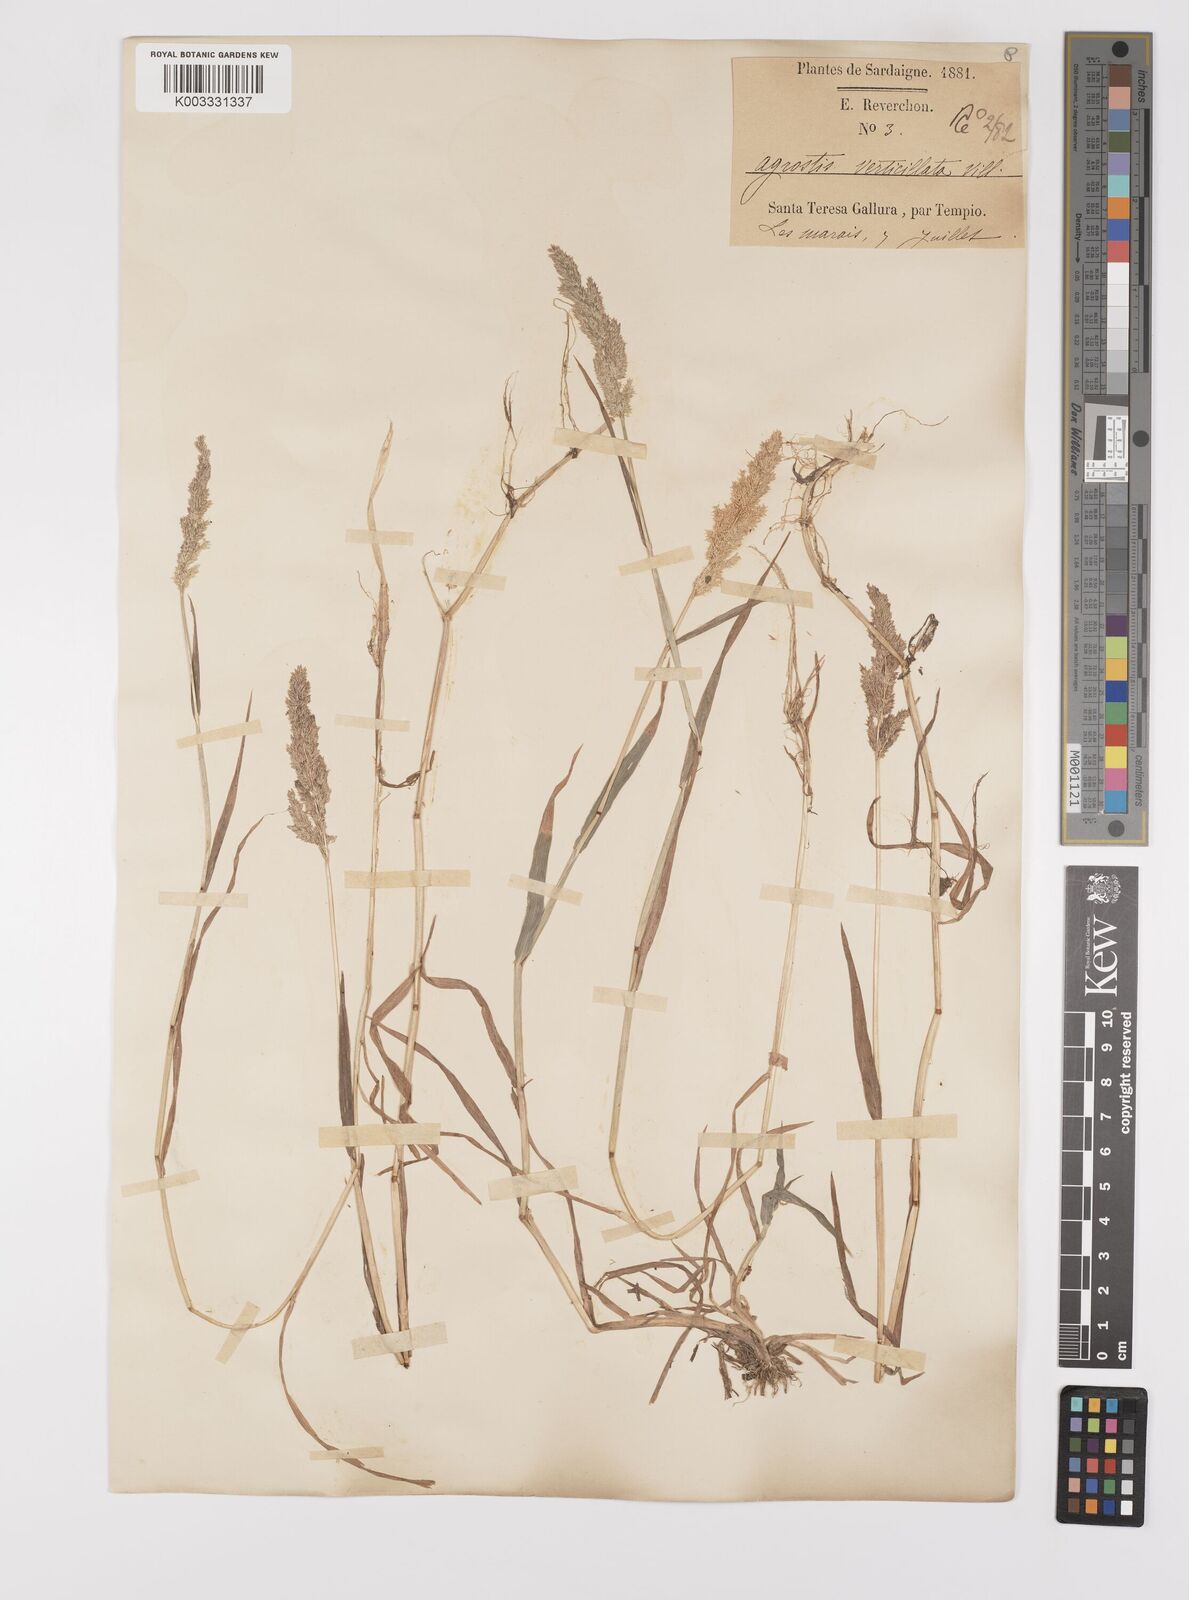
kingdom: Plantae
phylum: Tracheophyta
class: Liliopsida
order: Poales
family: Poaceae
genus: Polypogon
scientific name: Polypogon viridis
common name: Water bent
